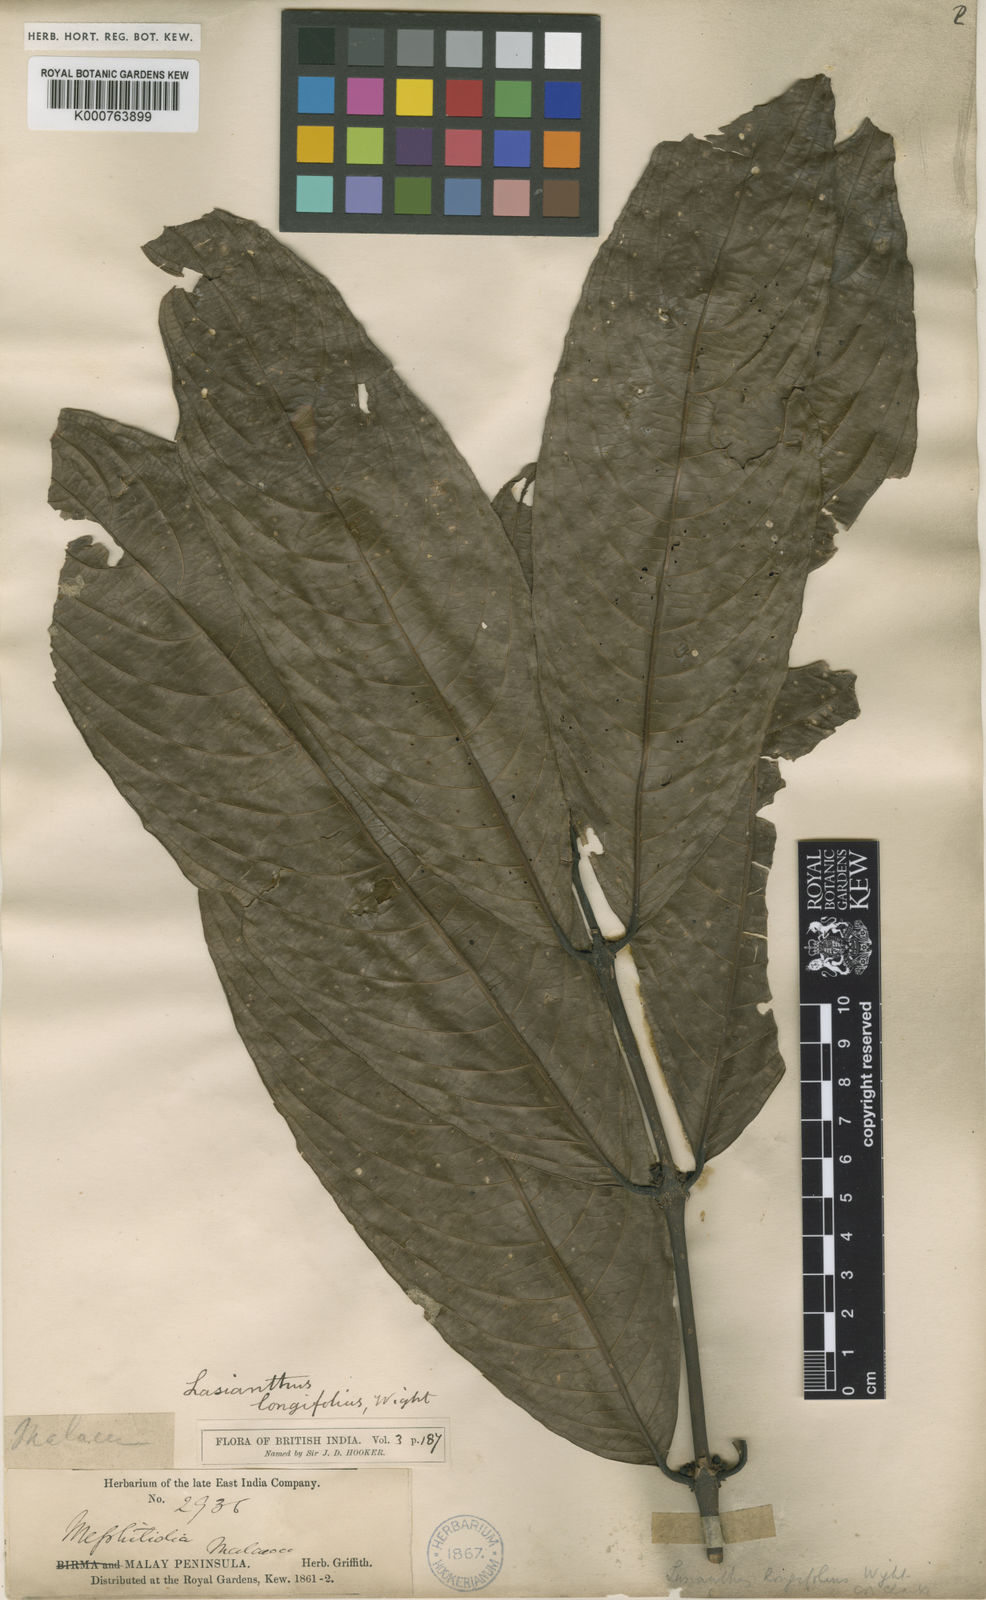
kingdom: Plantae
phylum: Tracheophyta
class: Magnoliopsida
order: Gentianales
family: Rubiaceae
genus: Lasianthus
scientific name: Lasianthus longifolius
